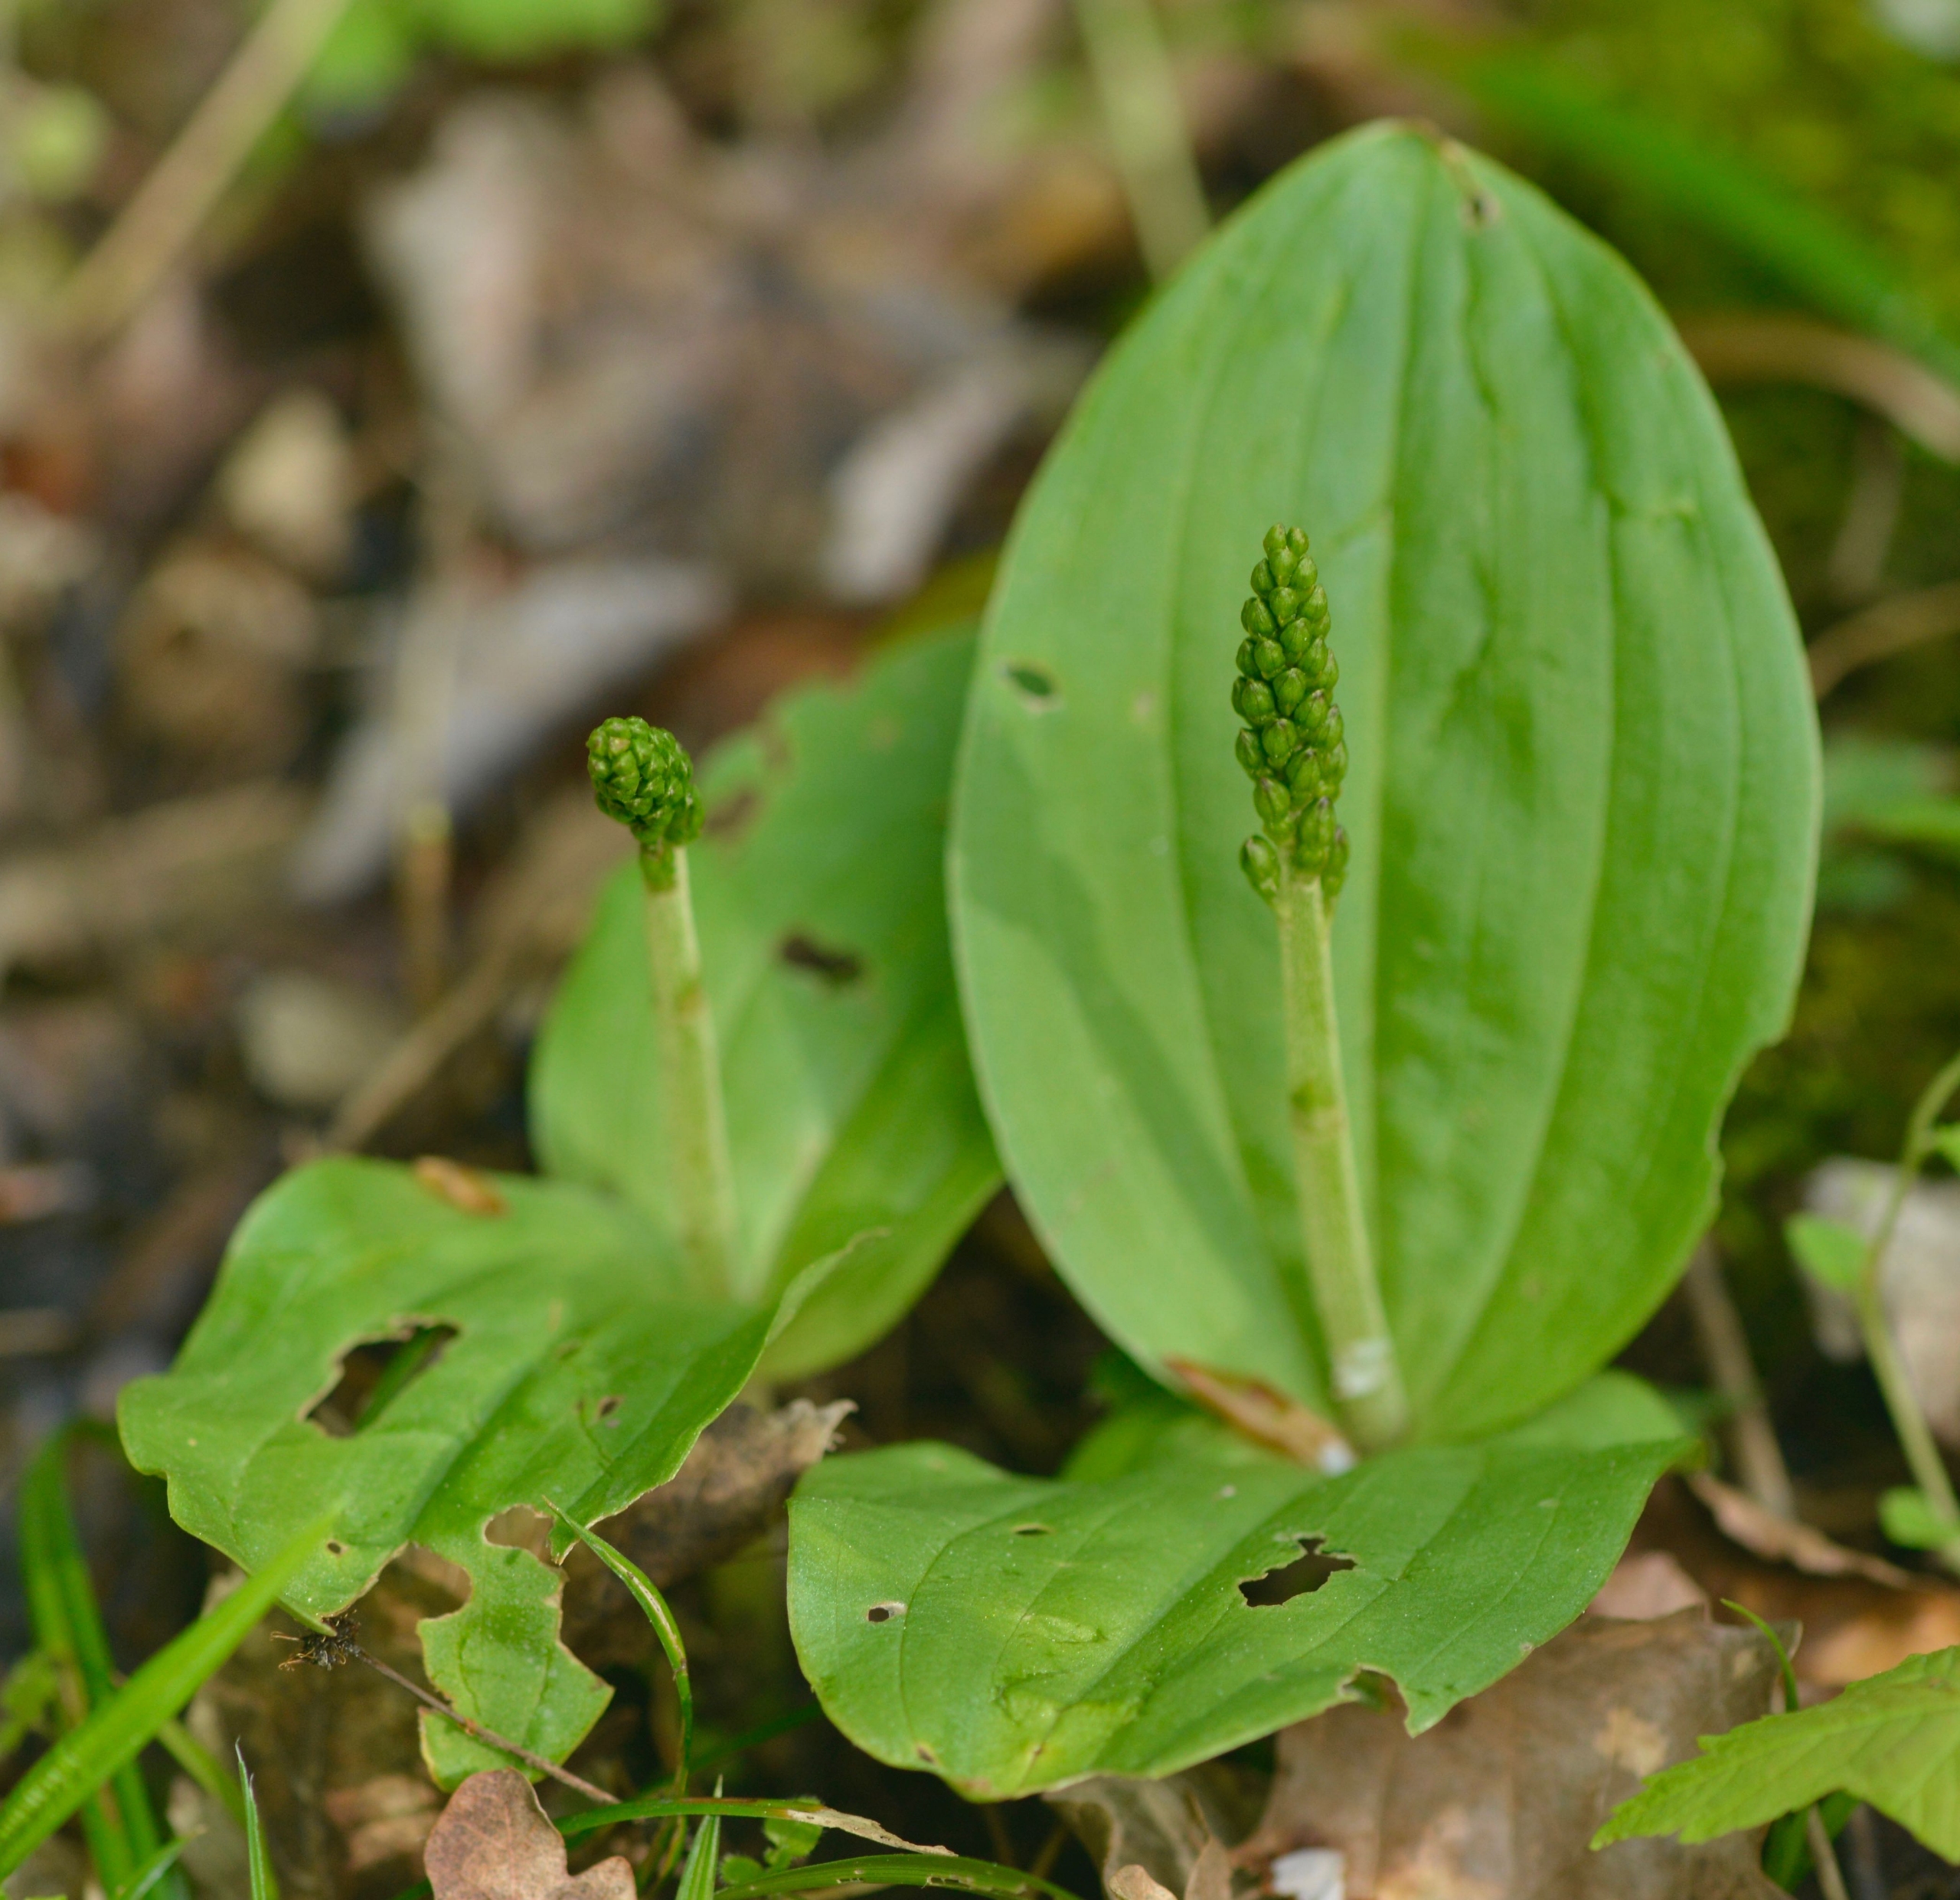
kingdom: Plantae
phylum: Tracheophyta
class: Liliopsida
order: Asparagales
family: Orchidaceae
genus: Neottia
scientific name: Neottia ovata
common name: Ægbladet fliglæbe
